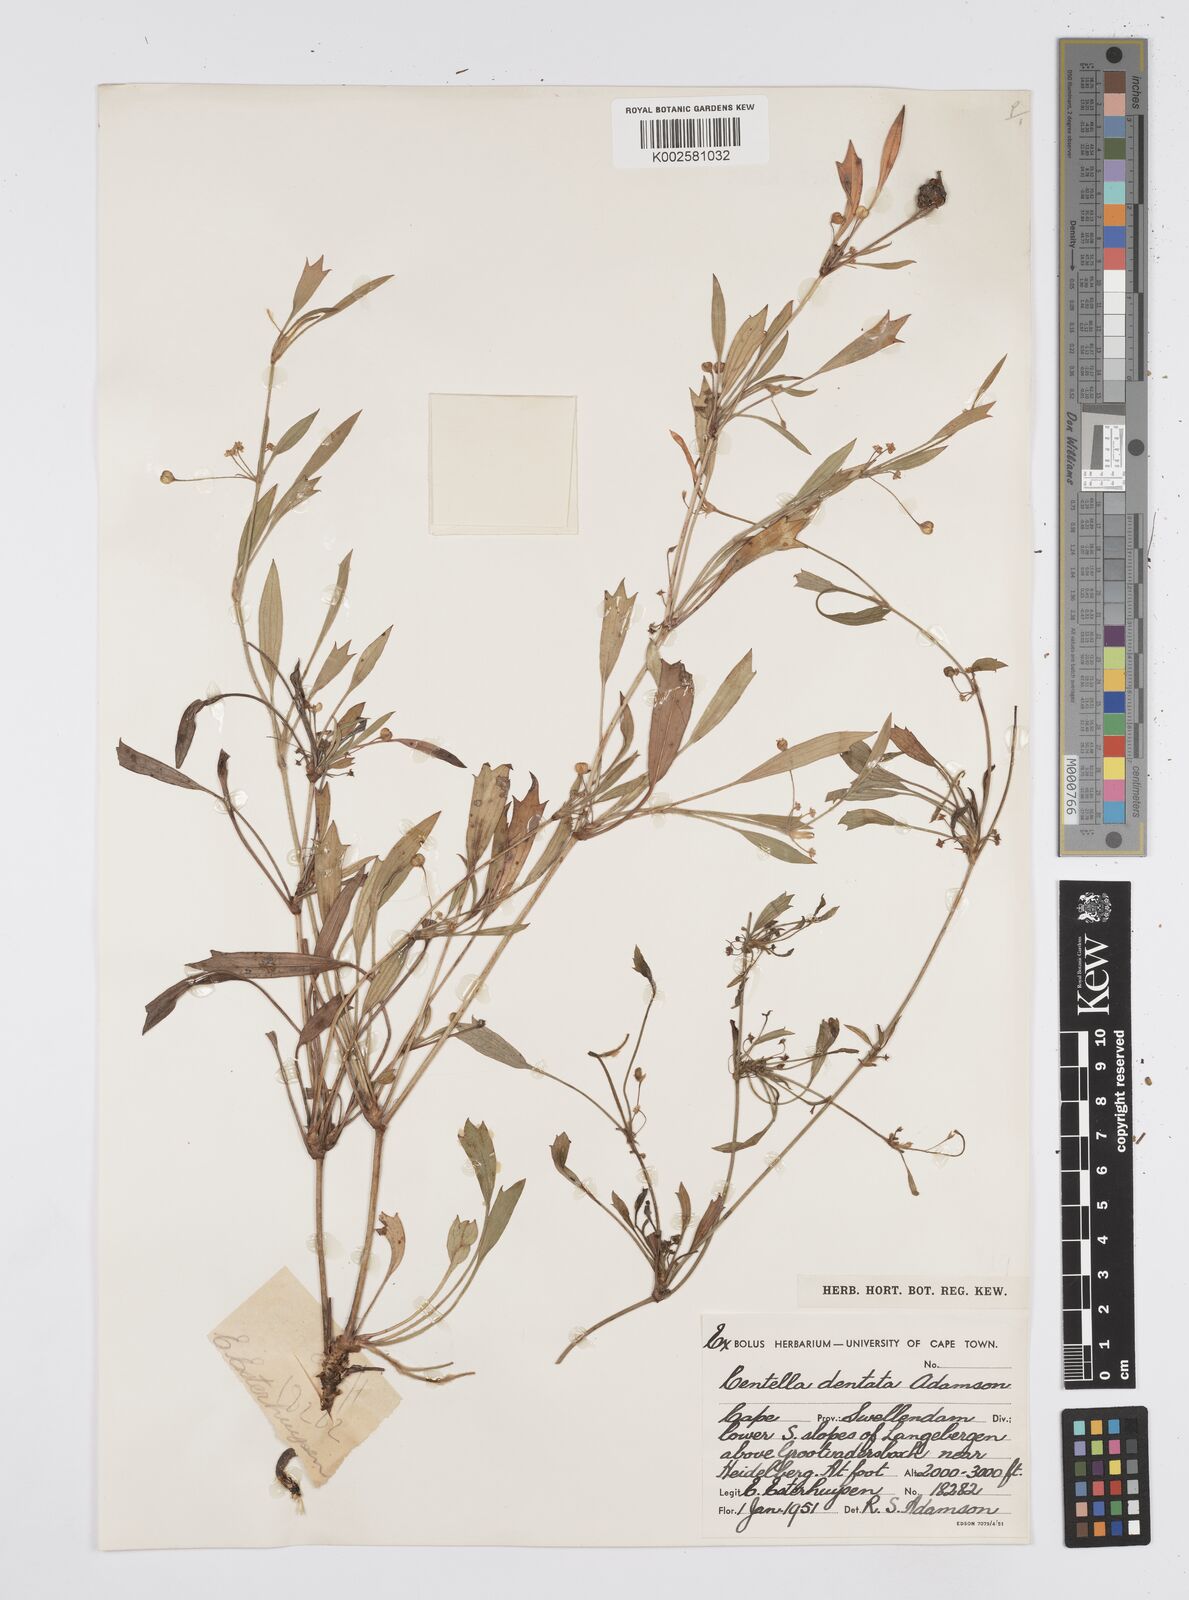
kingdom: Plantae
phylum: Tracheophyta
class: Magnoliopsida
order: Apiales
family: Apiaceae
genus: Centella
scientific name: Centella dentata
